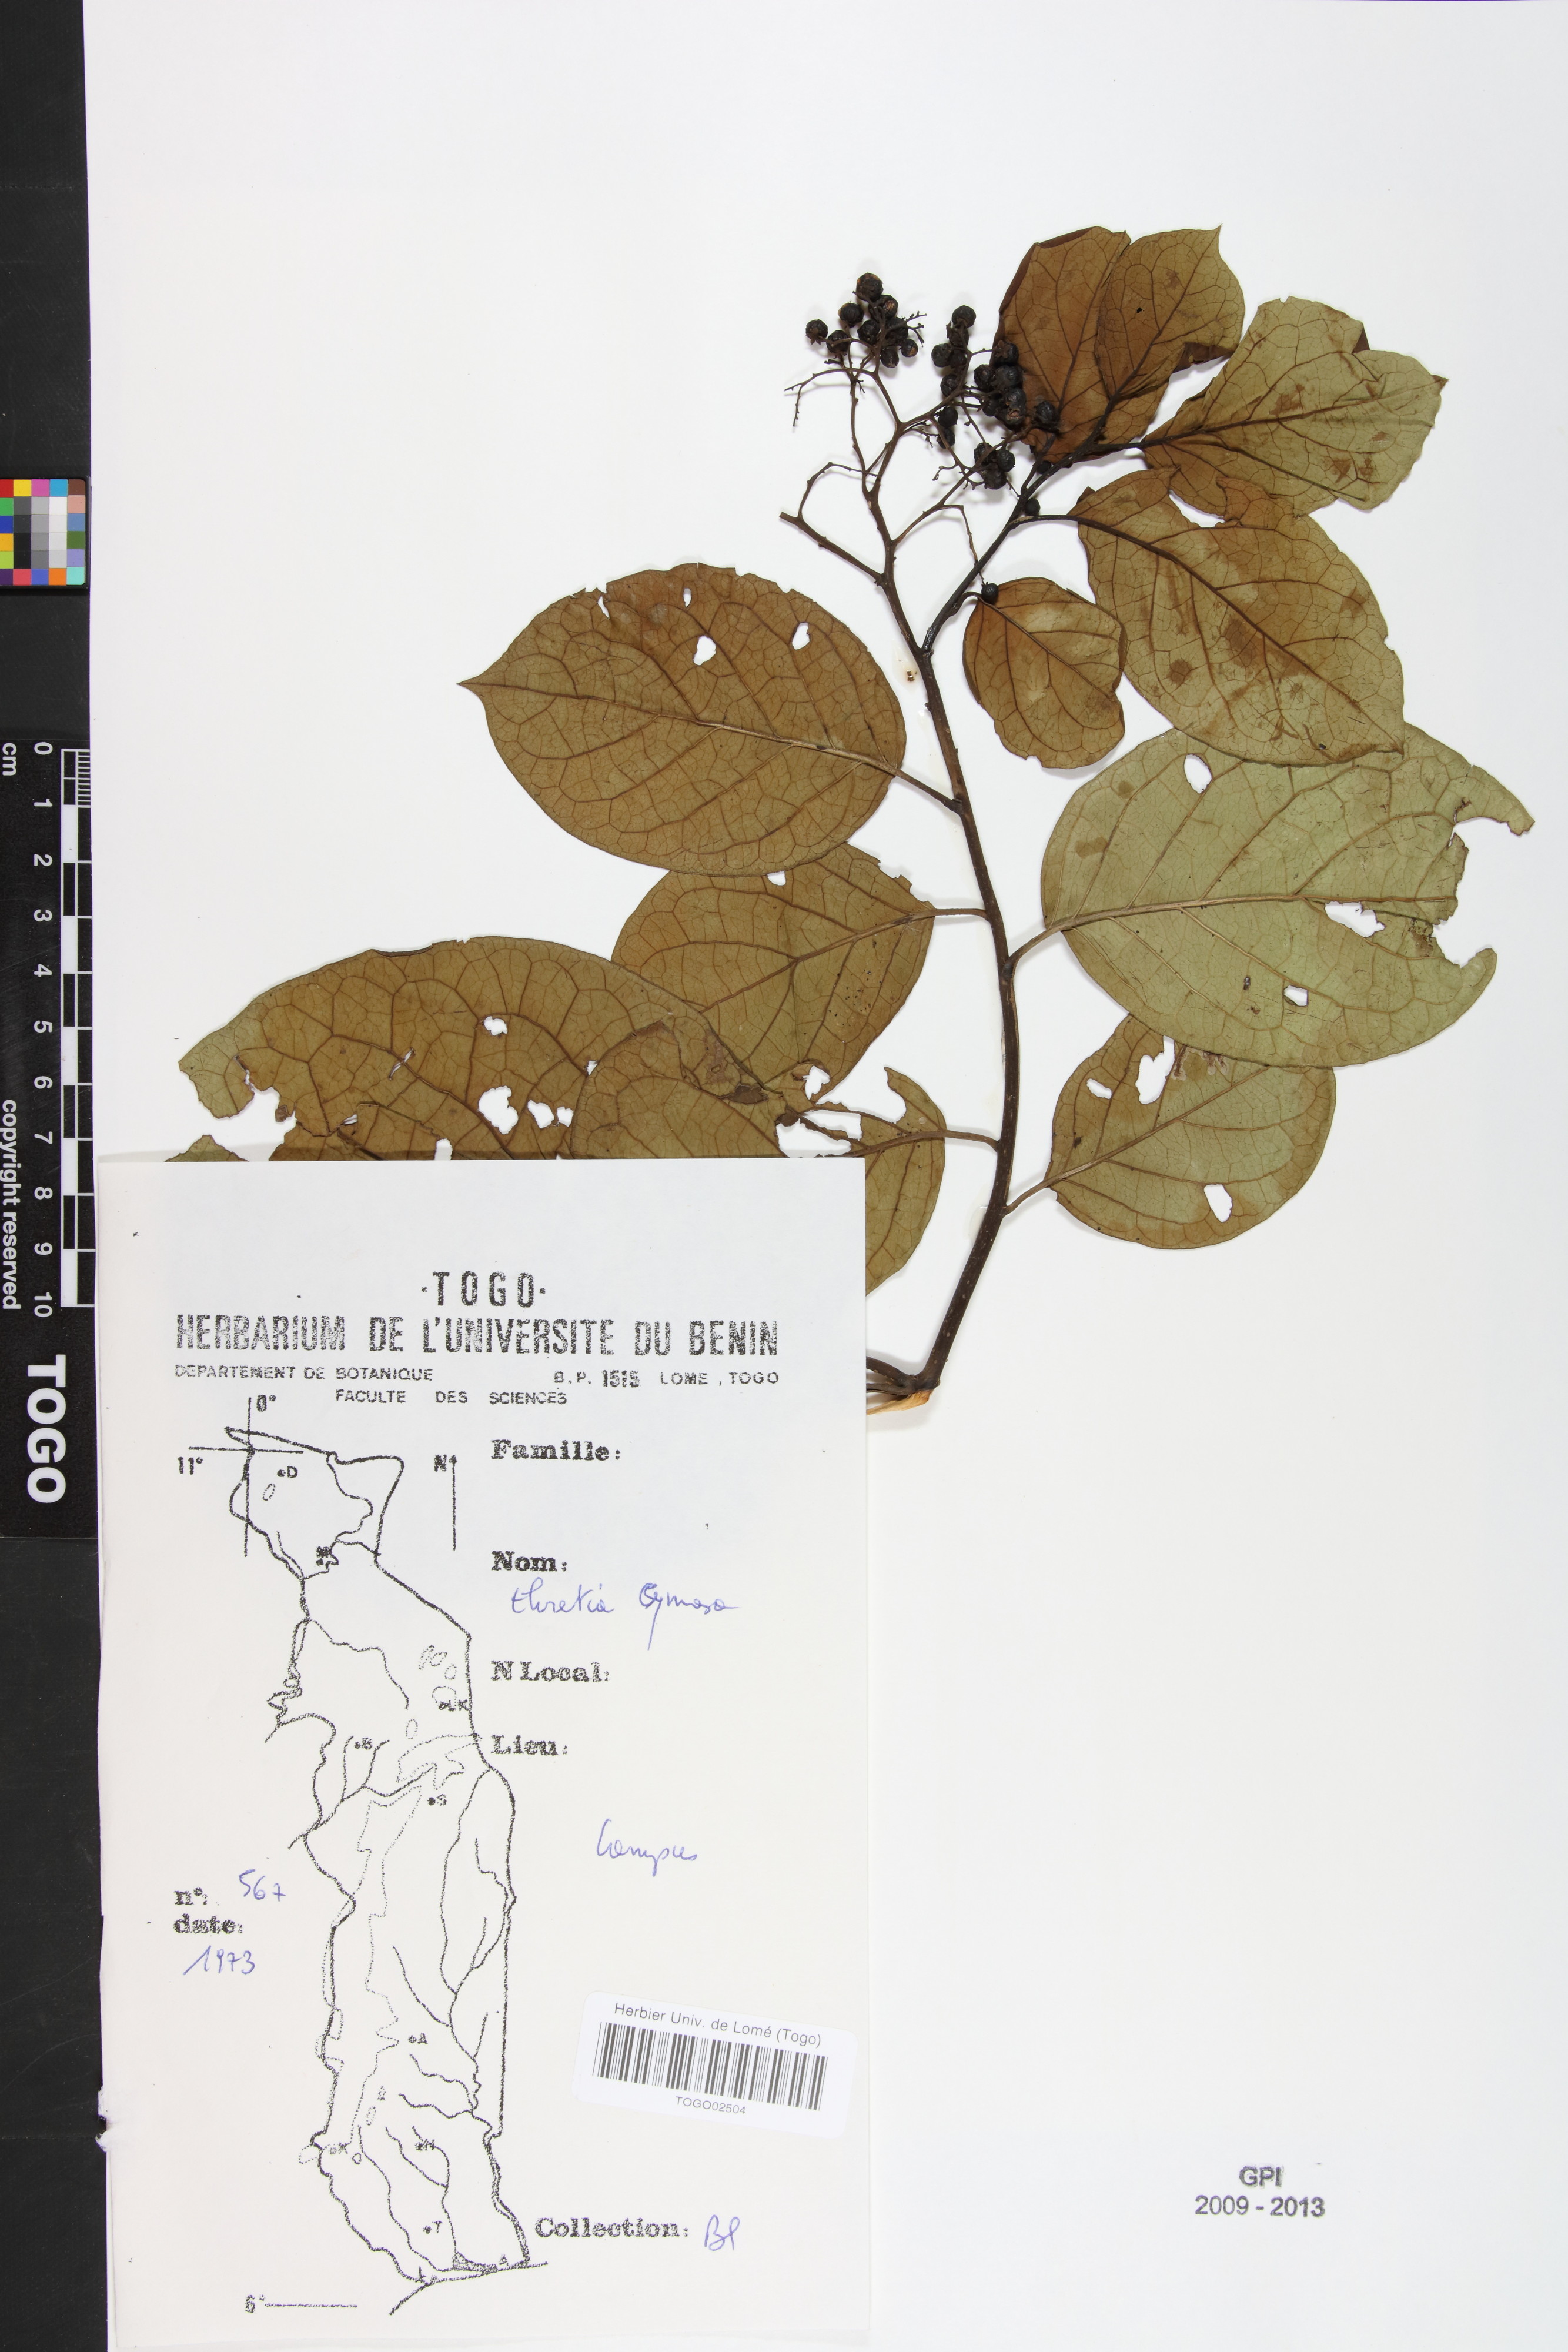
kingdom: Plantae
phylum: Tracheophyta
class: Magnoliopsida
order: Boraginales
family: Ehretiaceae
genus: Ehretia
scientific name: Ehretia cymosa
